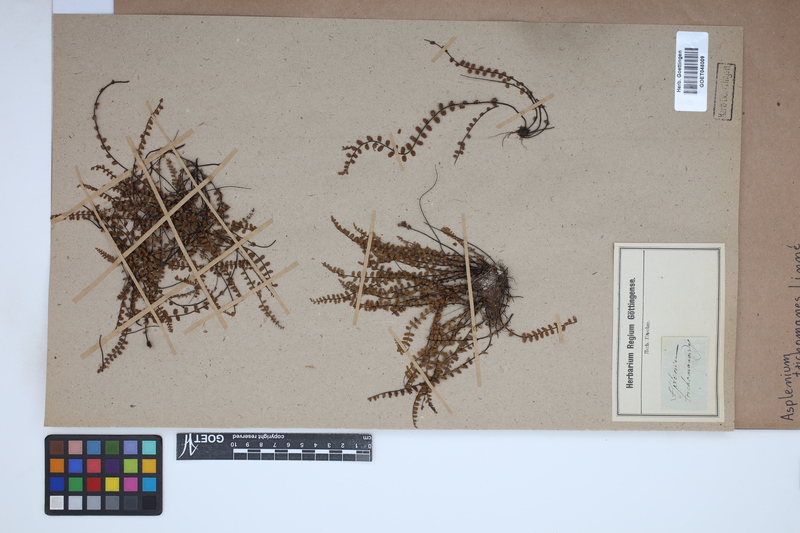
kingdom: Plantae
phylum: Tracheophyta
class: Polypodiopsida
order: Polypodiales
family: Aspleniaceae
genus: Asplenium
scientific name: Asplenium trichomanes
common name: Maidenhair spleenwort
